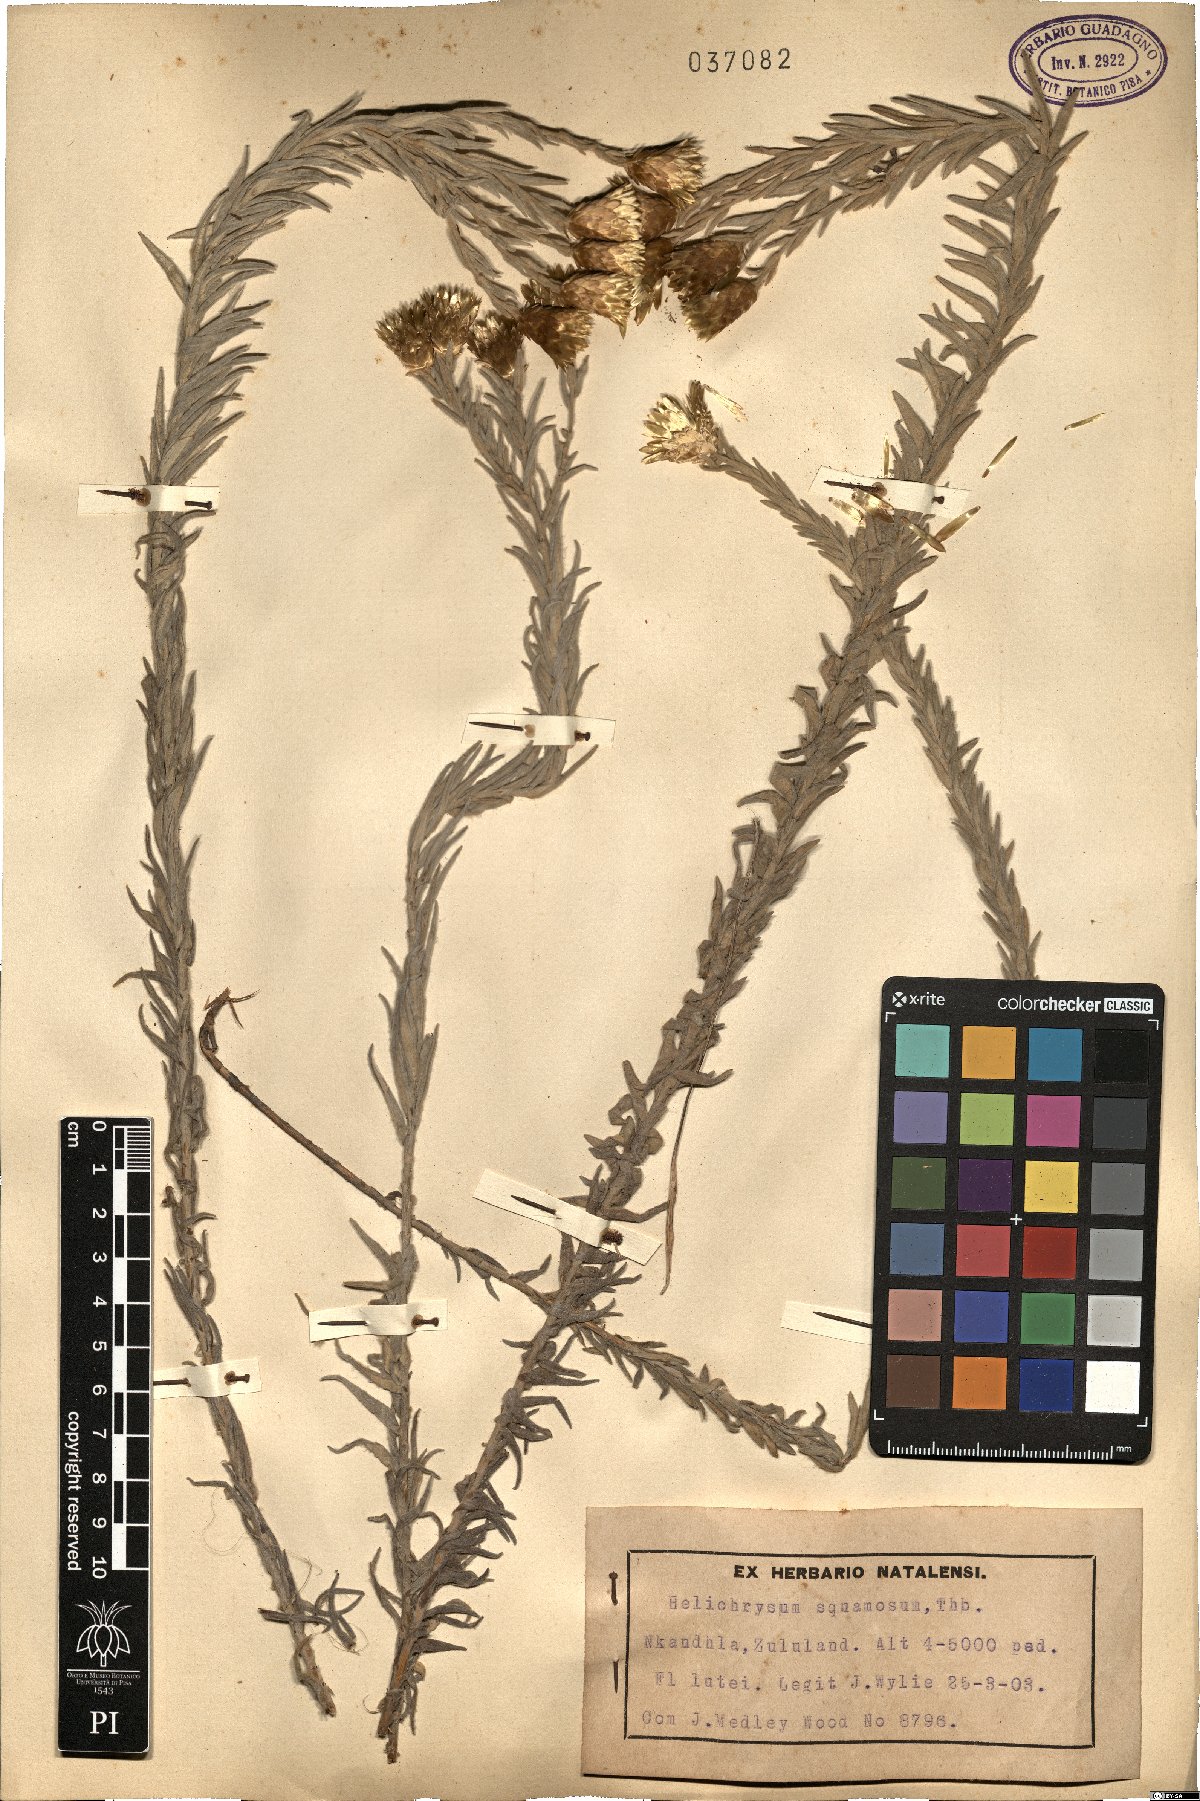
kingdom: Plantae
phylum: Tracheophyta
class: Magnoliopsida
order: Asterales
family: Asteraceae
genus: Helichrysum
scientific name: Helichrysum retrorsum
